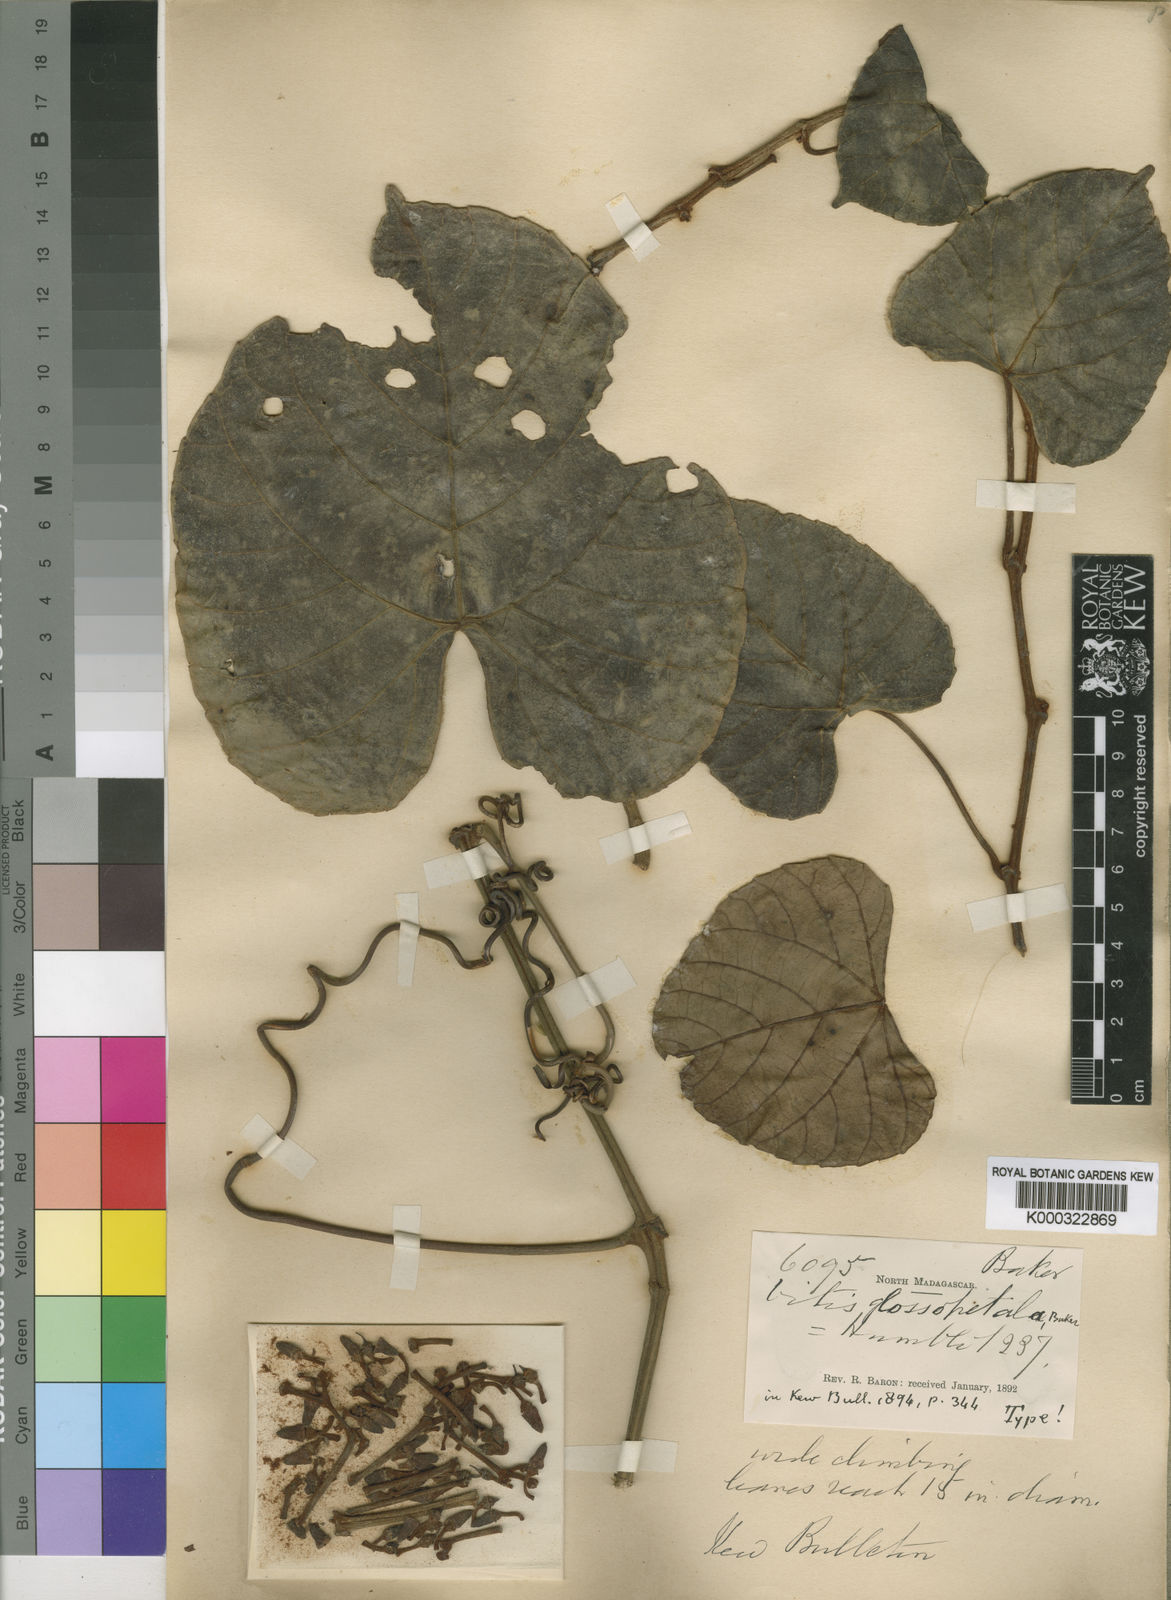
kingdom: Plantae
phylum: Tracheophyta
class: Magnoliopsida
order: Vitales
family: Vitaceae
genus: Cissus
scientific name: Cissus glossopetala
